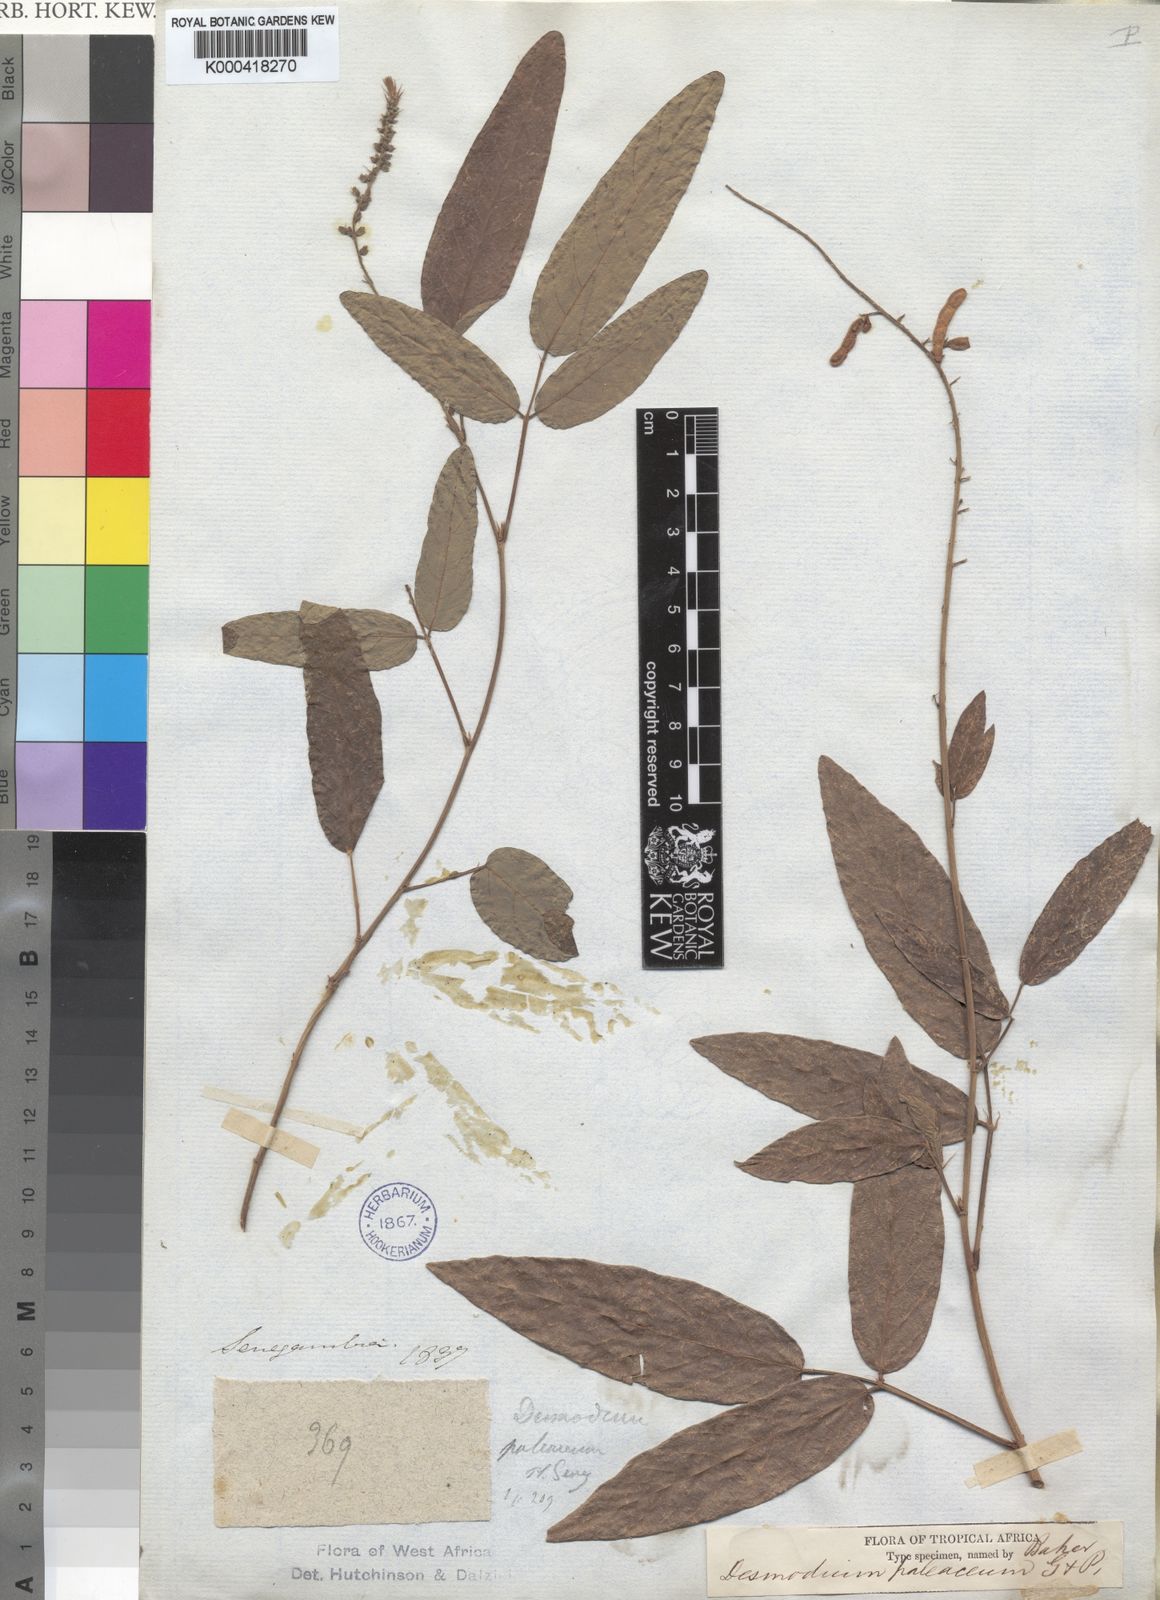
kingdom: Plantae
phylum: Tracheophyta
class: Magnoliopsida
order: Fabales
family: Fabaceae
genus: Pleurolobus
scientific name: Pleurolobus salicifolius
